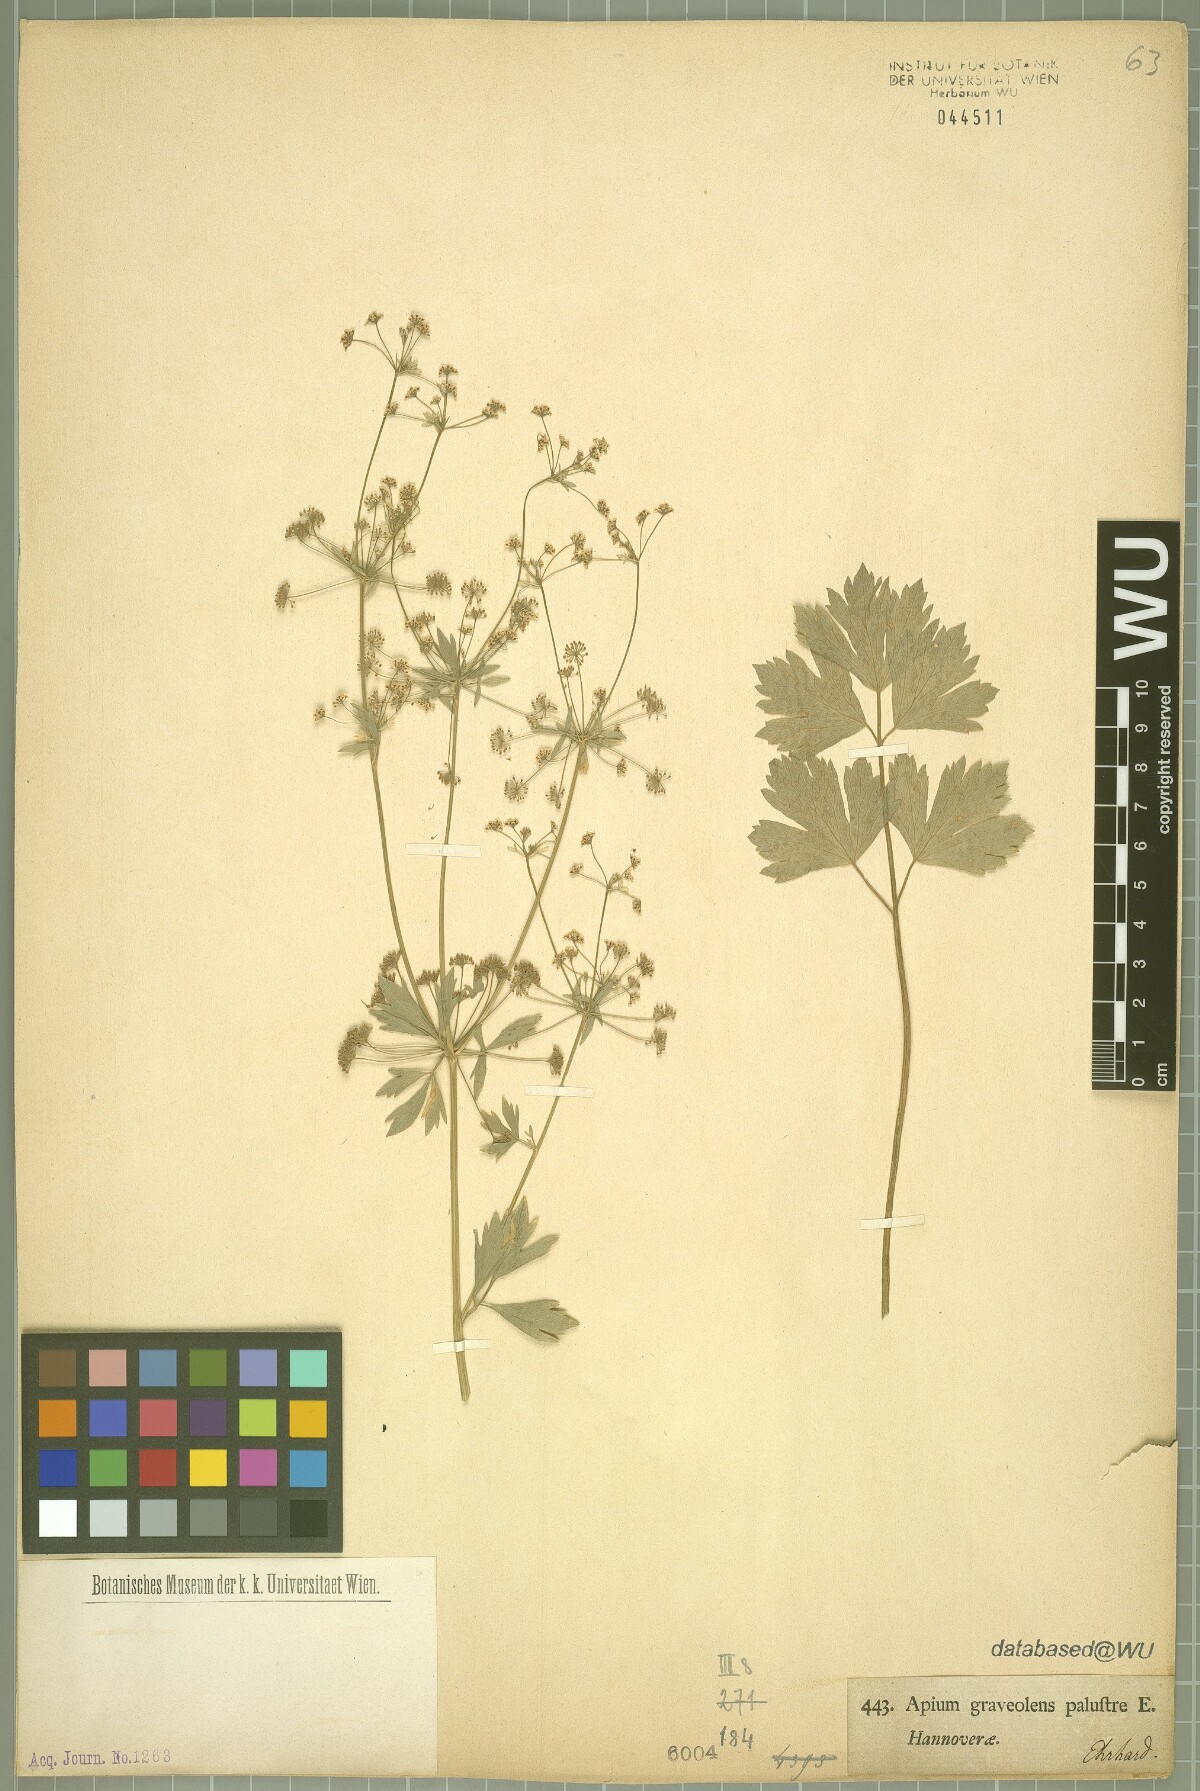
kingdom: Plantae
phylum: Tracheophyta
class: Magnoliopsida
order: Apiales
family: Apiaceae
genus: Apium
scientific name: Apium graveolens
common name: Wild celery
